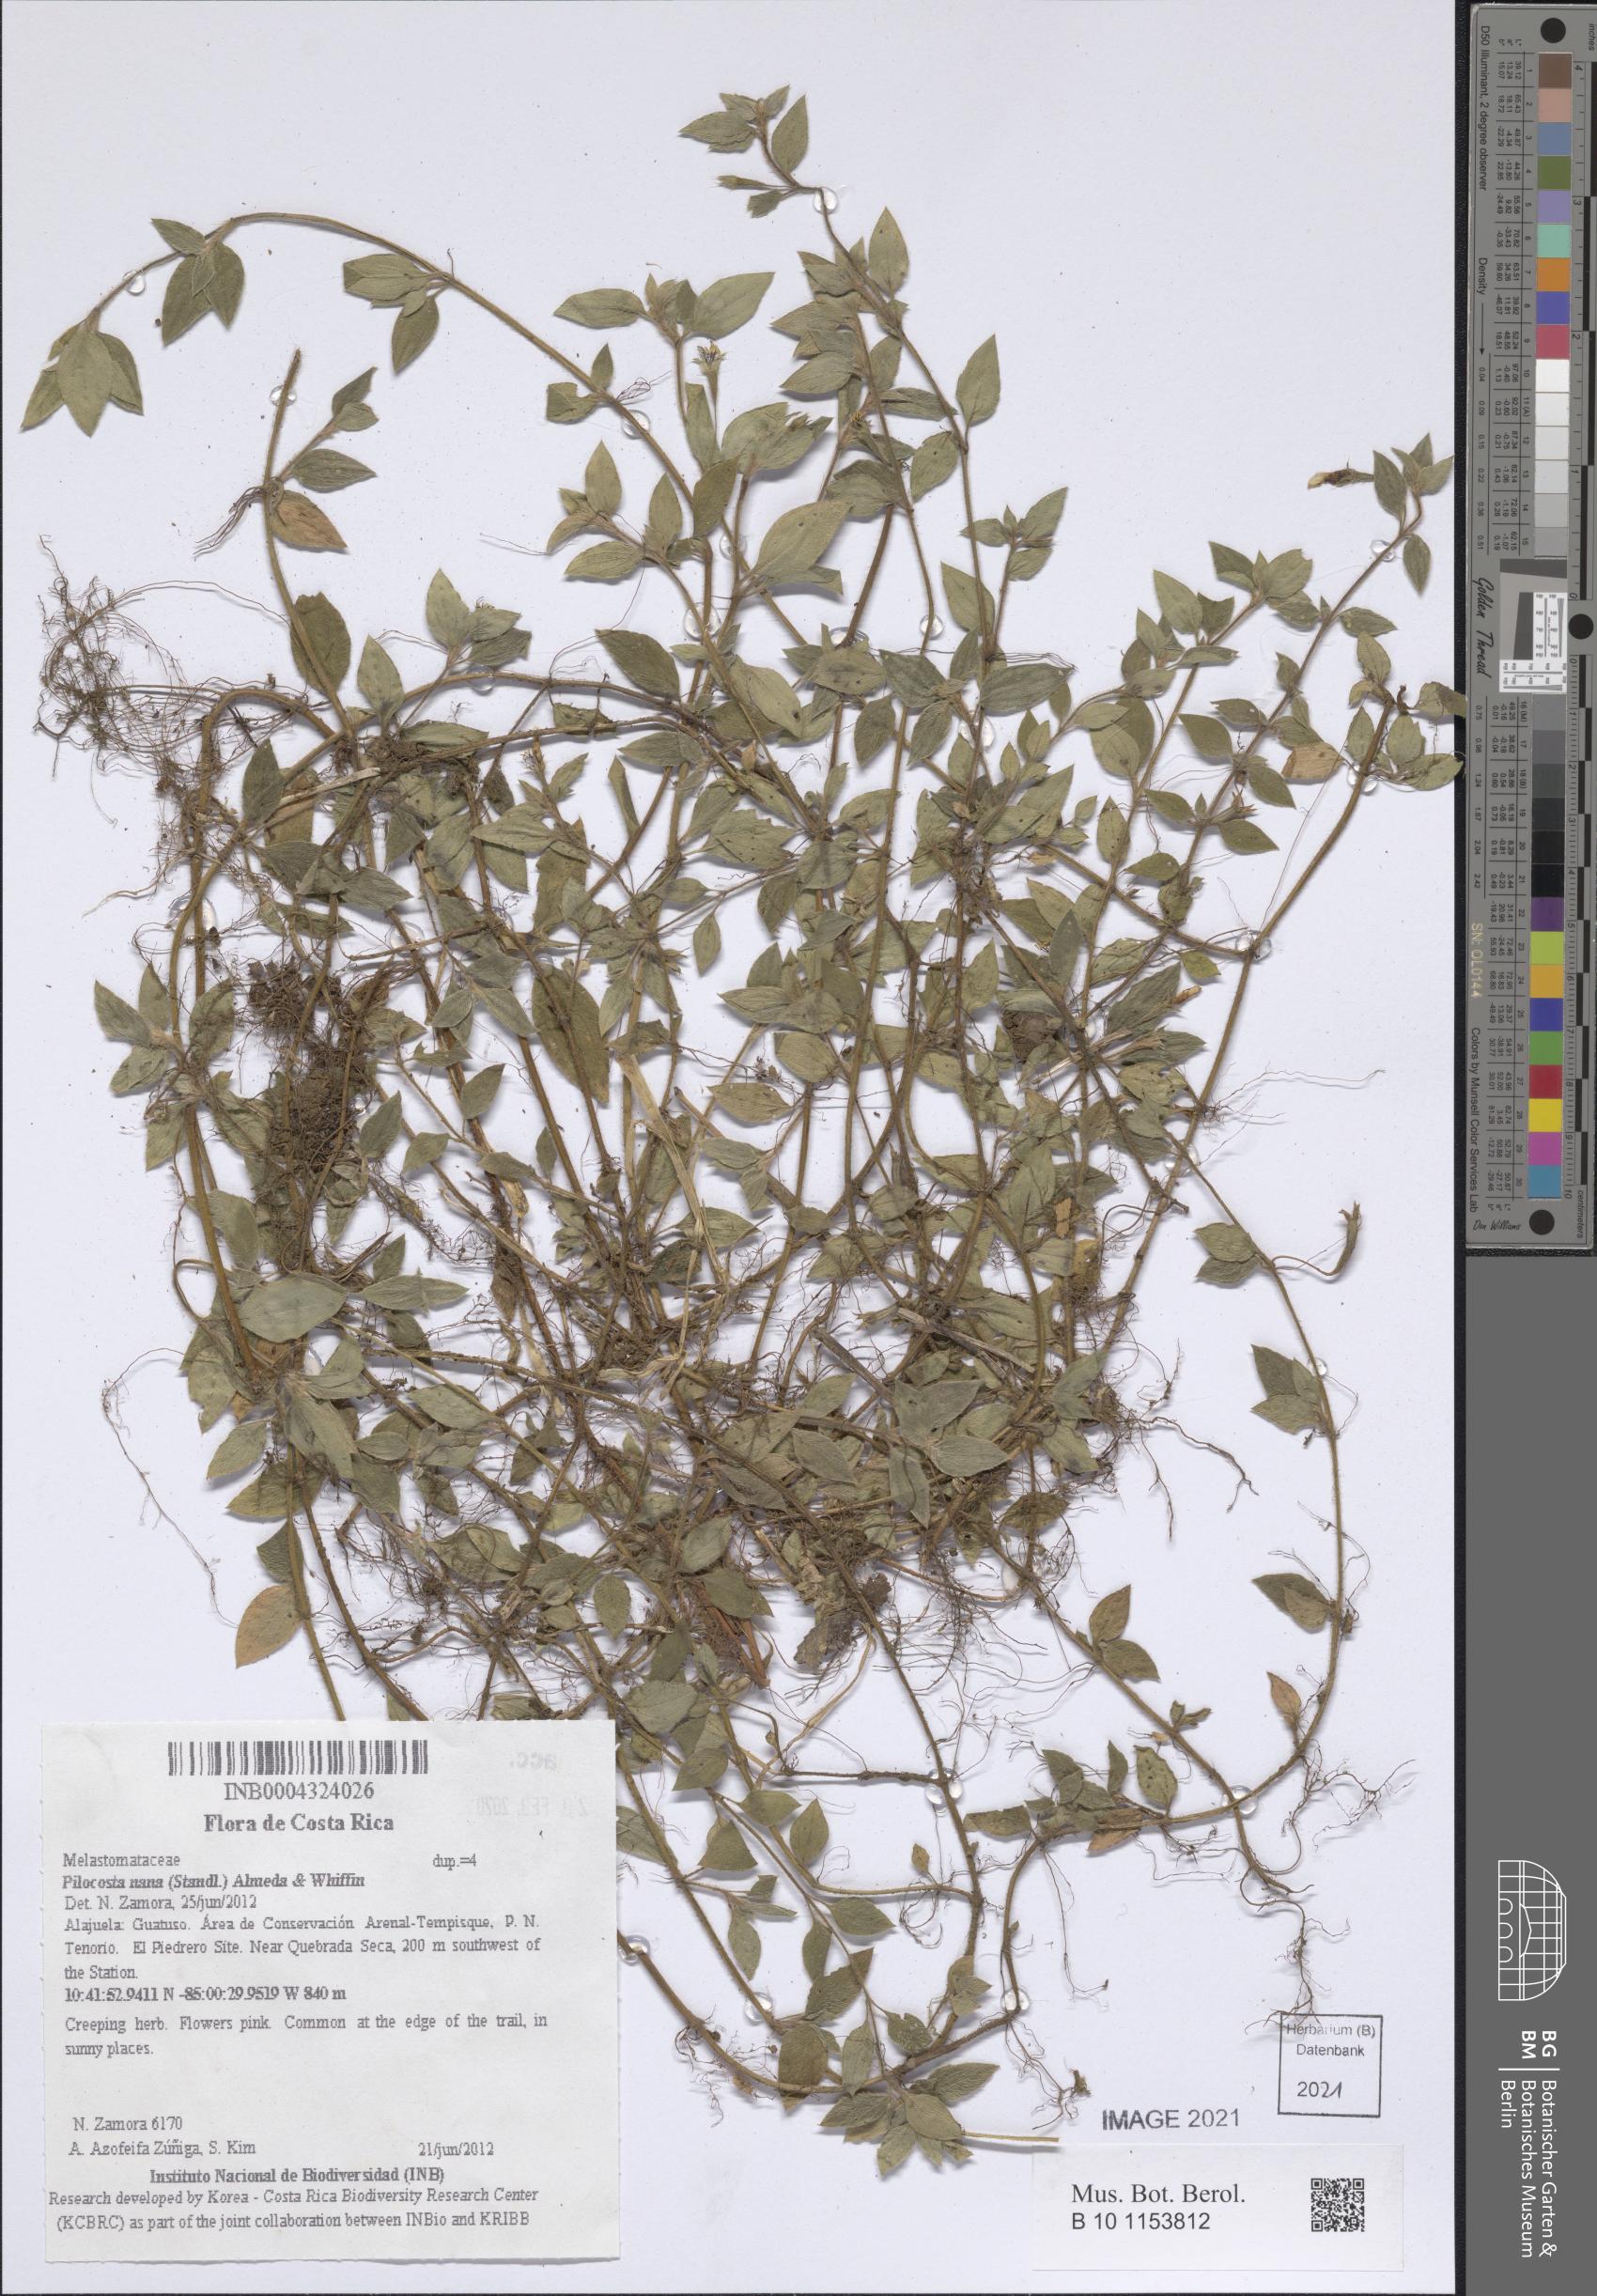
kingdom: Plantae
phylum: Tracheophyta
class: Magnoliopsida
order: Myrtales
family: Melastomataceae
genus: Pilocosta
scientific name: Pilocosta nana
